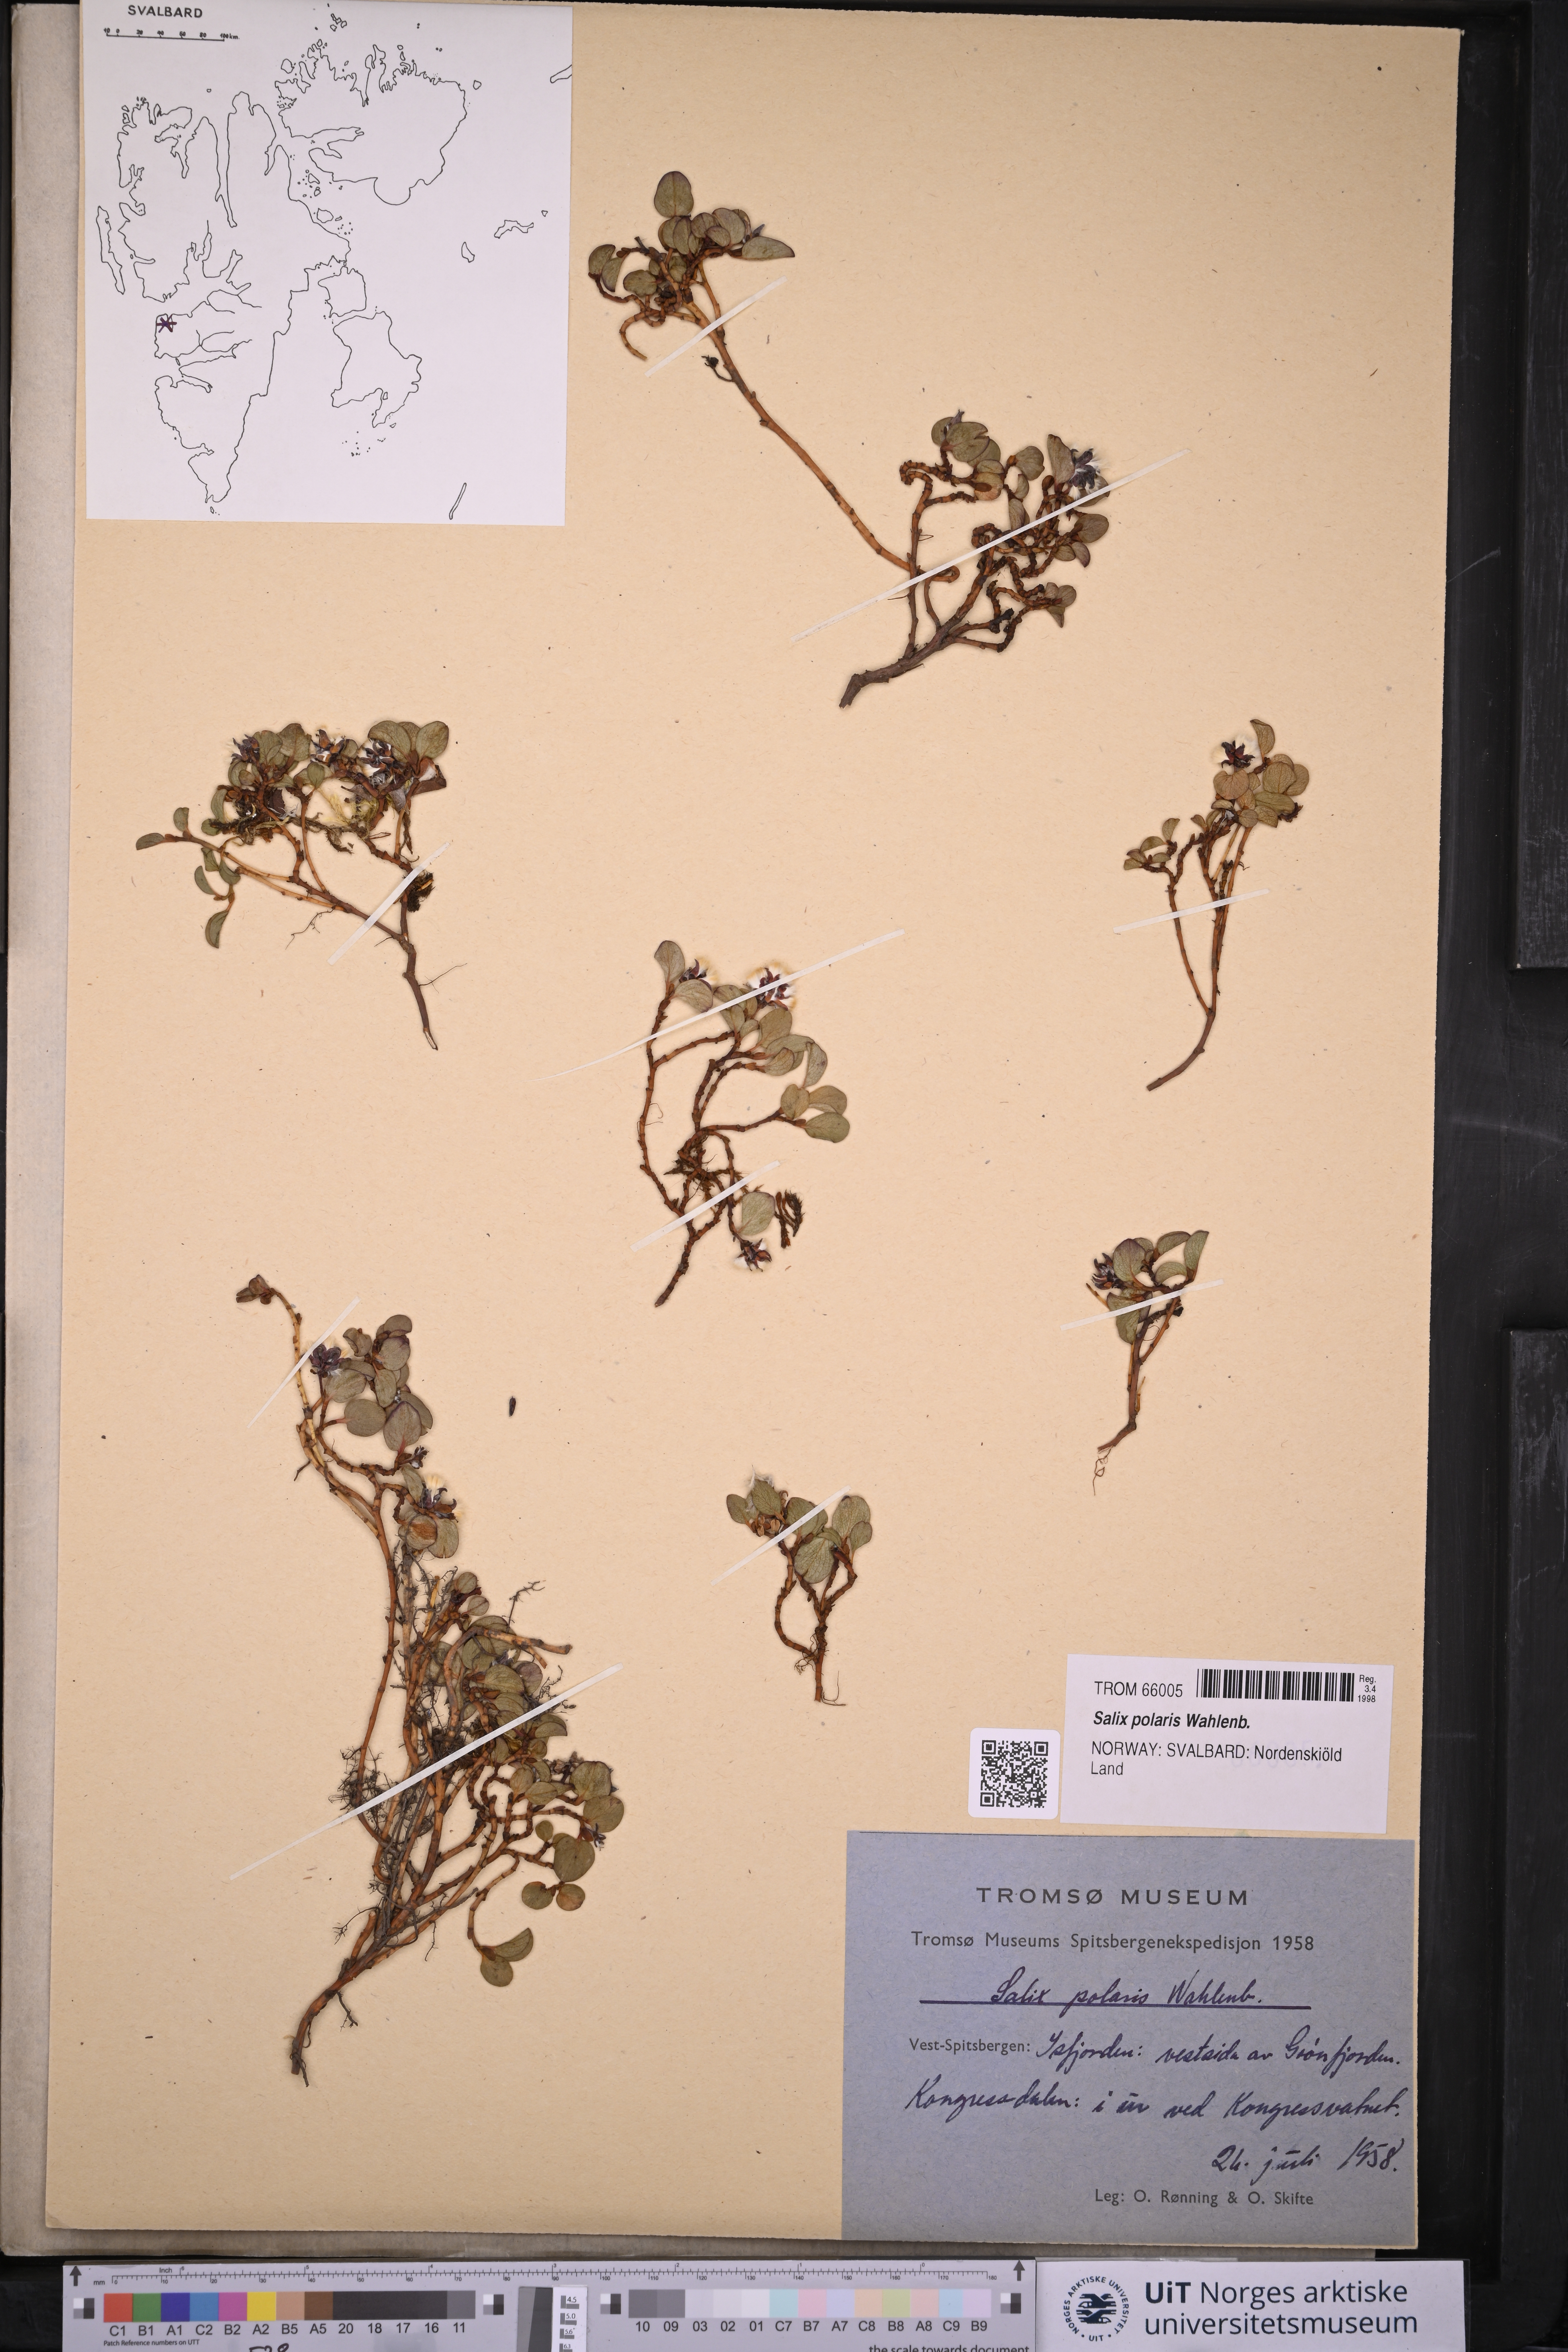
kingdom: Plantae
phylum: Tracheophyta
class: Magnoliopsida
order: Malpighiales
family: Salicaceae
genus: Salix
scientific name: Salix polaris
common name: Polar willow
